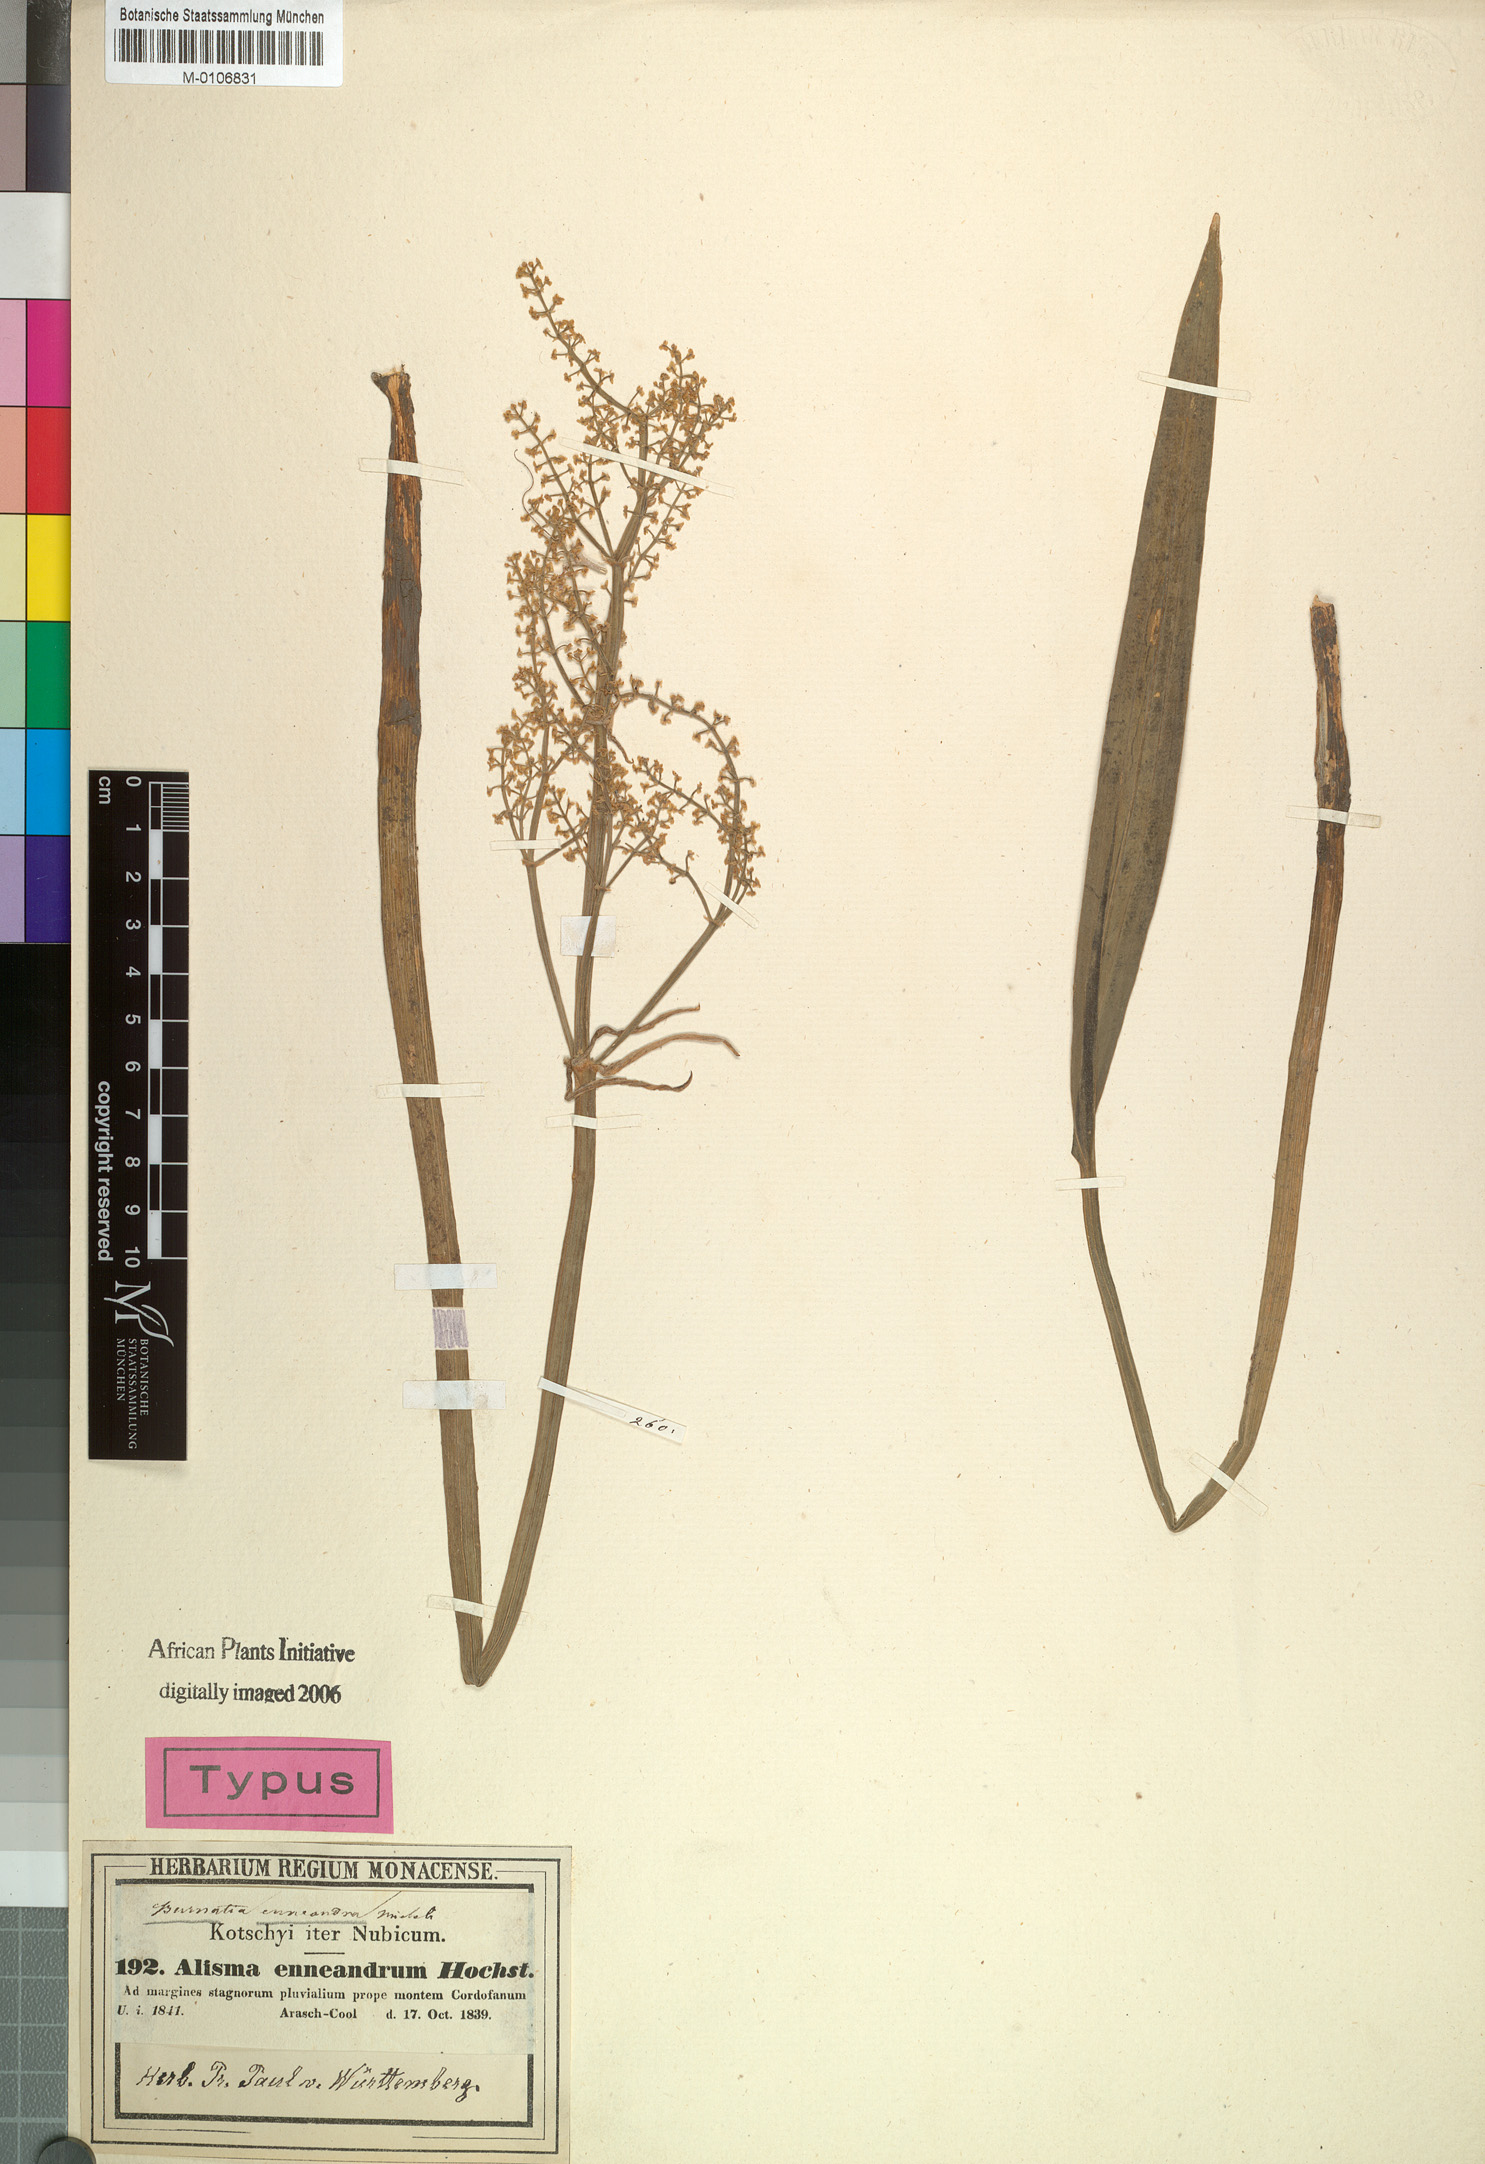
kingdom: Plantae
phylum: Tracheophyta
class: Liliopsida
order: Alismatales
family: Alismataceae
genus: Burnatia
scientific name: Burnatia enneandra
